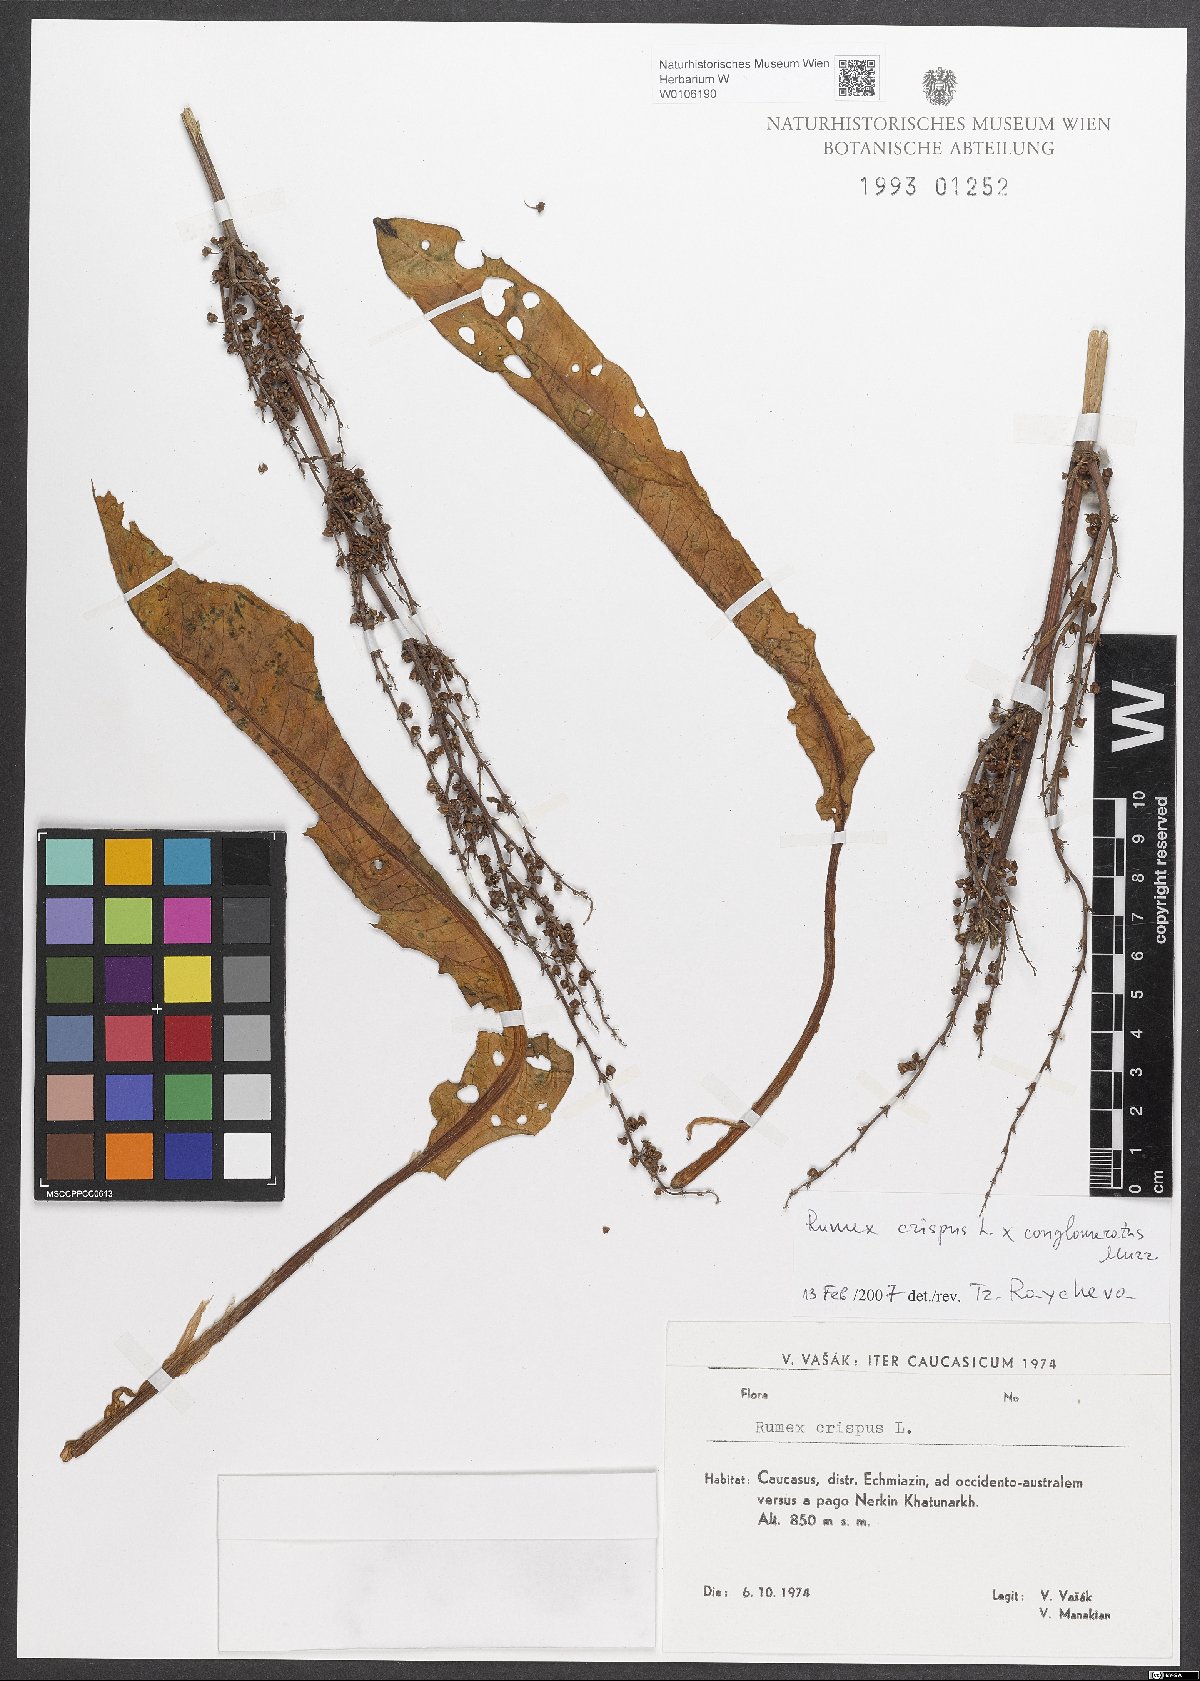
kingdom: Plantae
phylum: Tracheophyta
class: Magnoliopsida
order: Caryophyllales
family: Polygonaceae
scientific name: Polygonaceae
